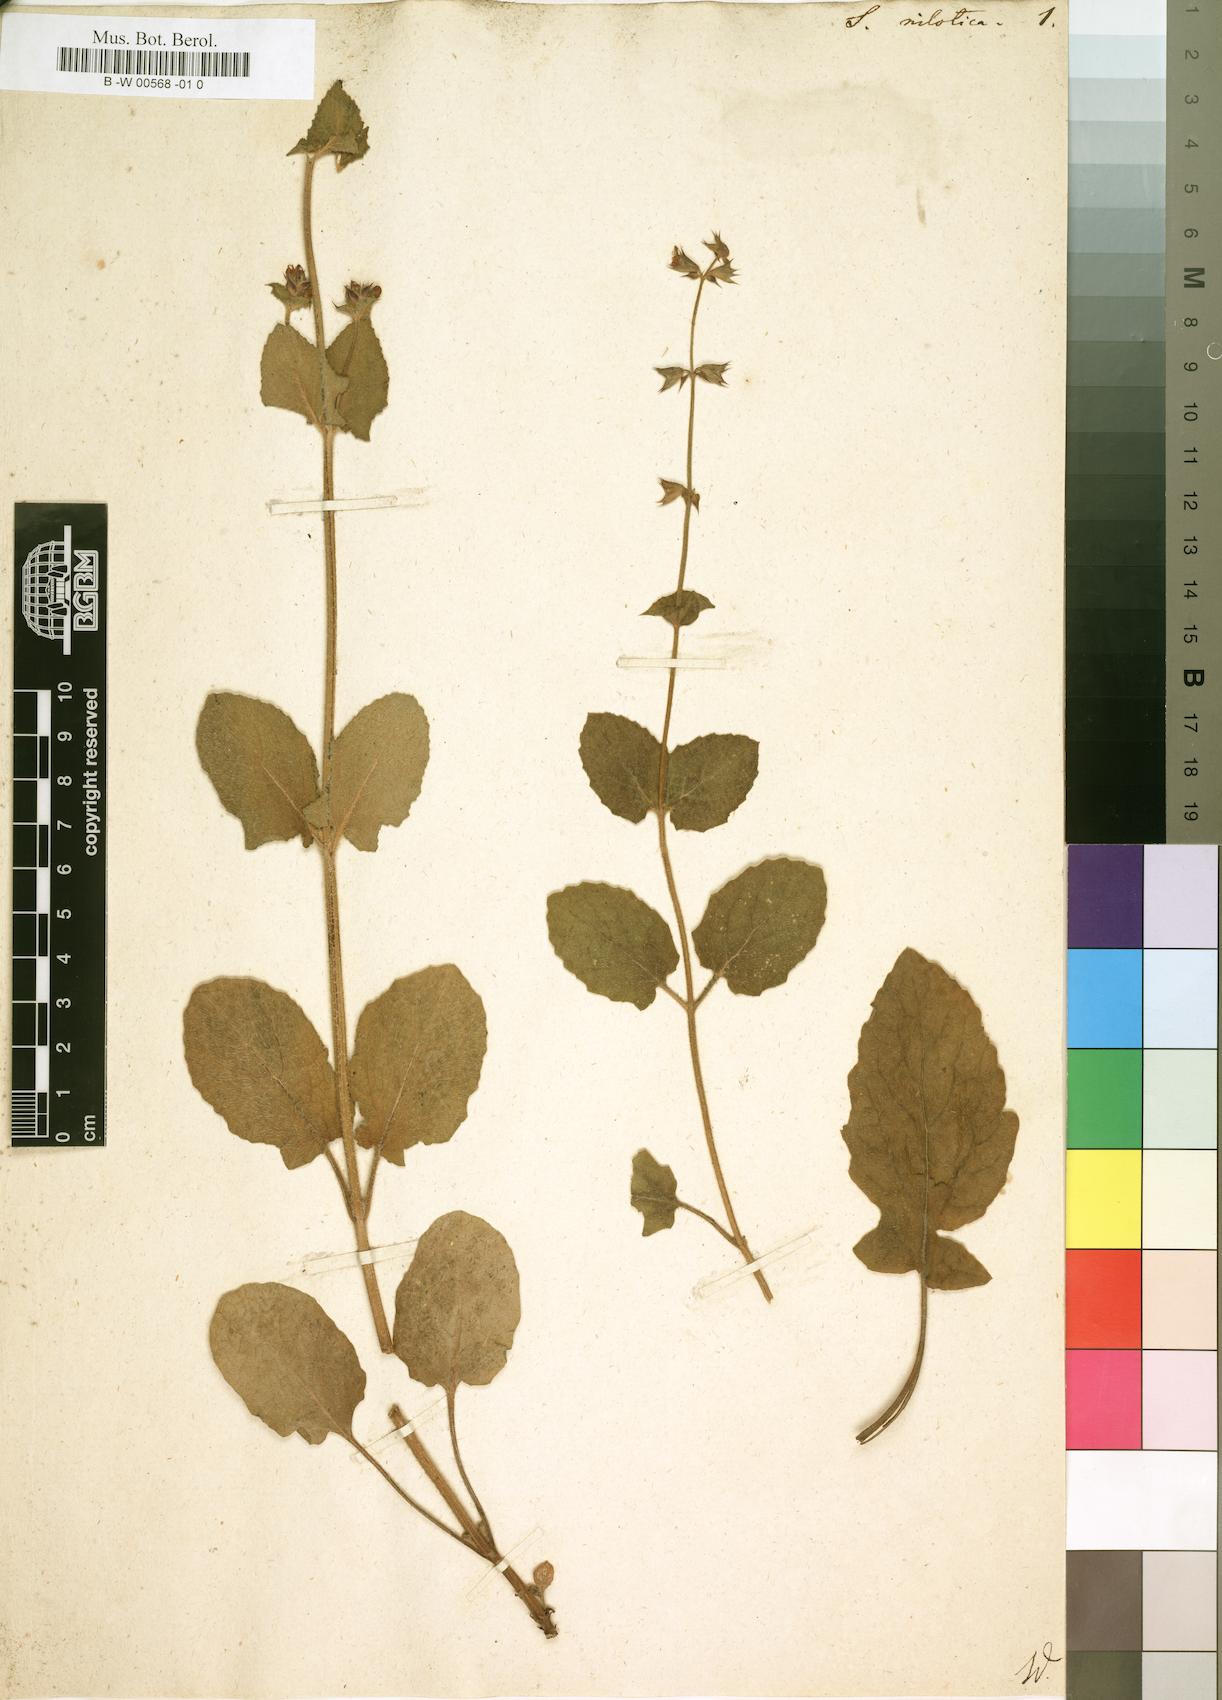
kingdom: Plantae
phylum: Tracheophyta
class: Magnoliopsida
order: Lamiales
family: Lamiaceae
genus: Salvia
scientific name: Salvia nilotica
